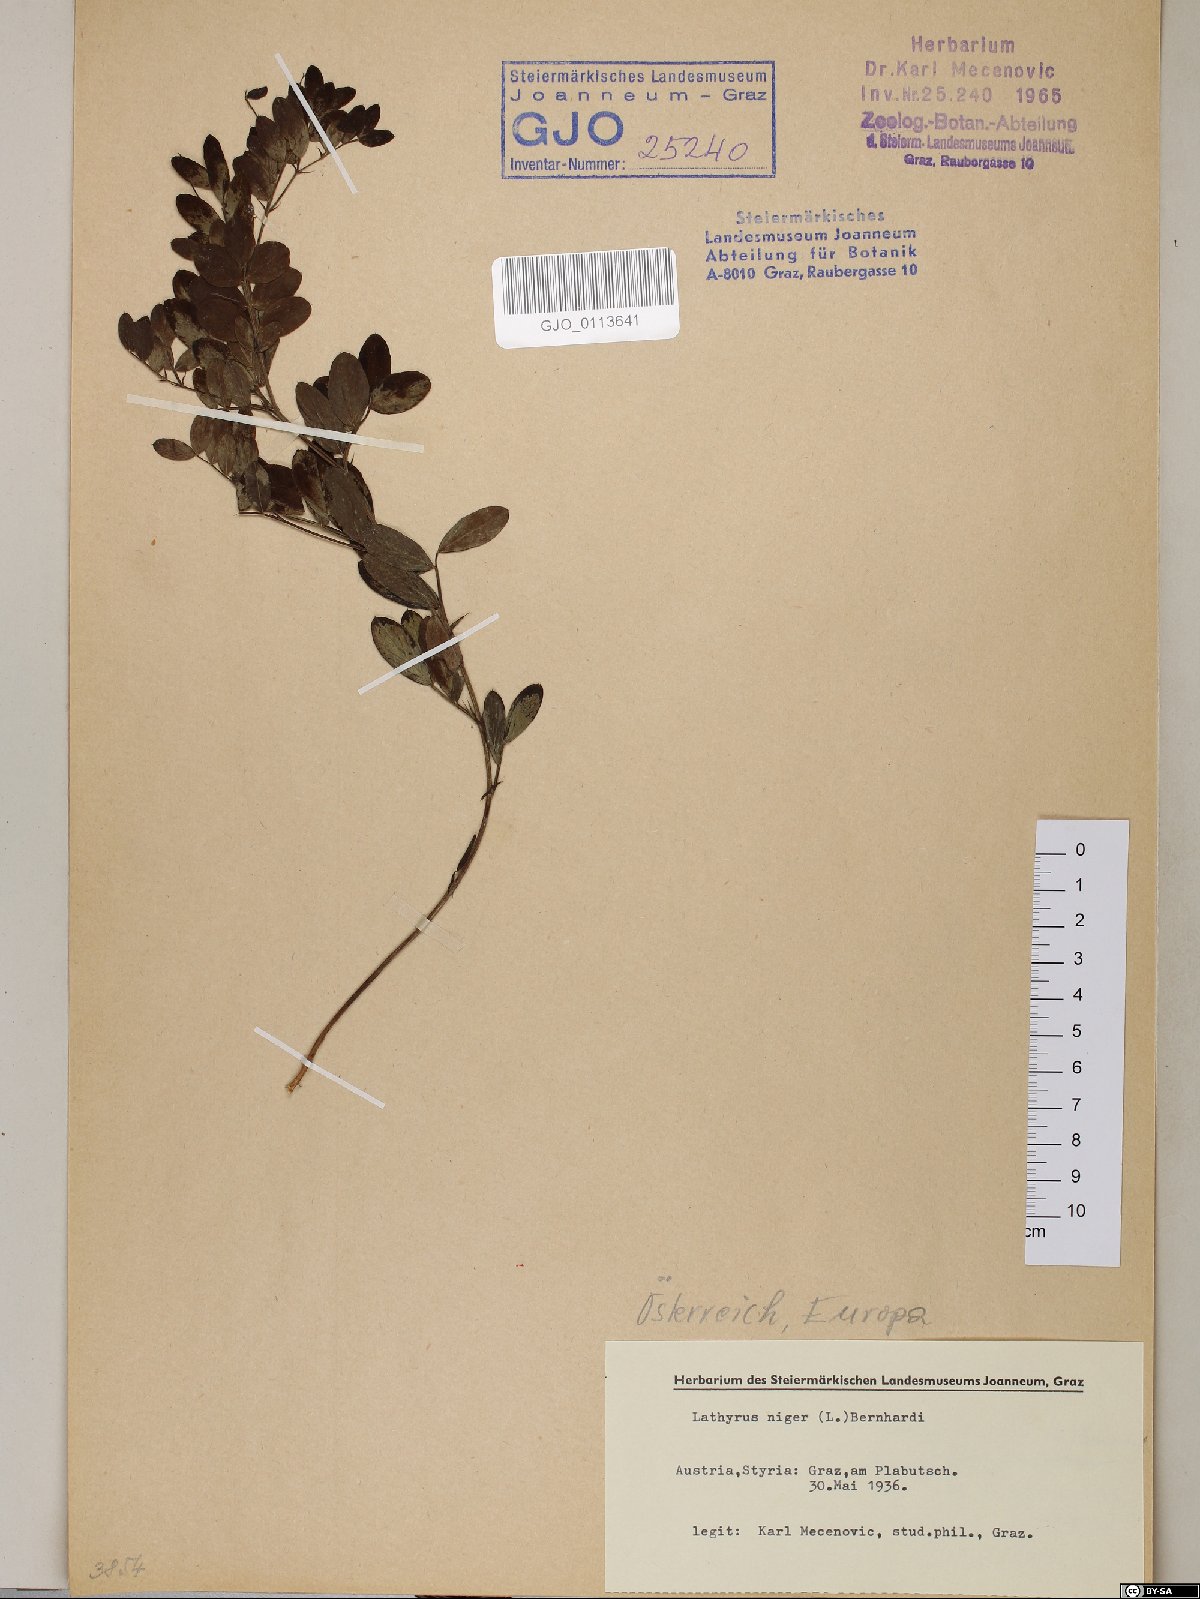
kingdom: Plantae
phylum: Tracheophyta
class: Magnoliopsida
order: Fabales
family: Fabaceae
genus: Lathyrus
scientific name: Lathyrus niger
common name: Black pea
